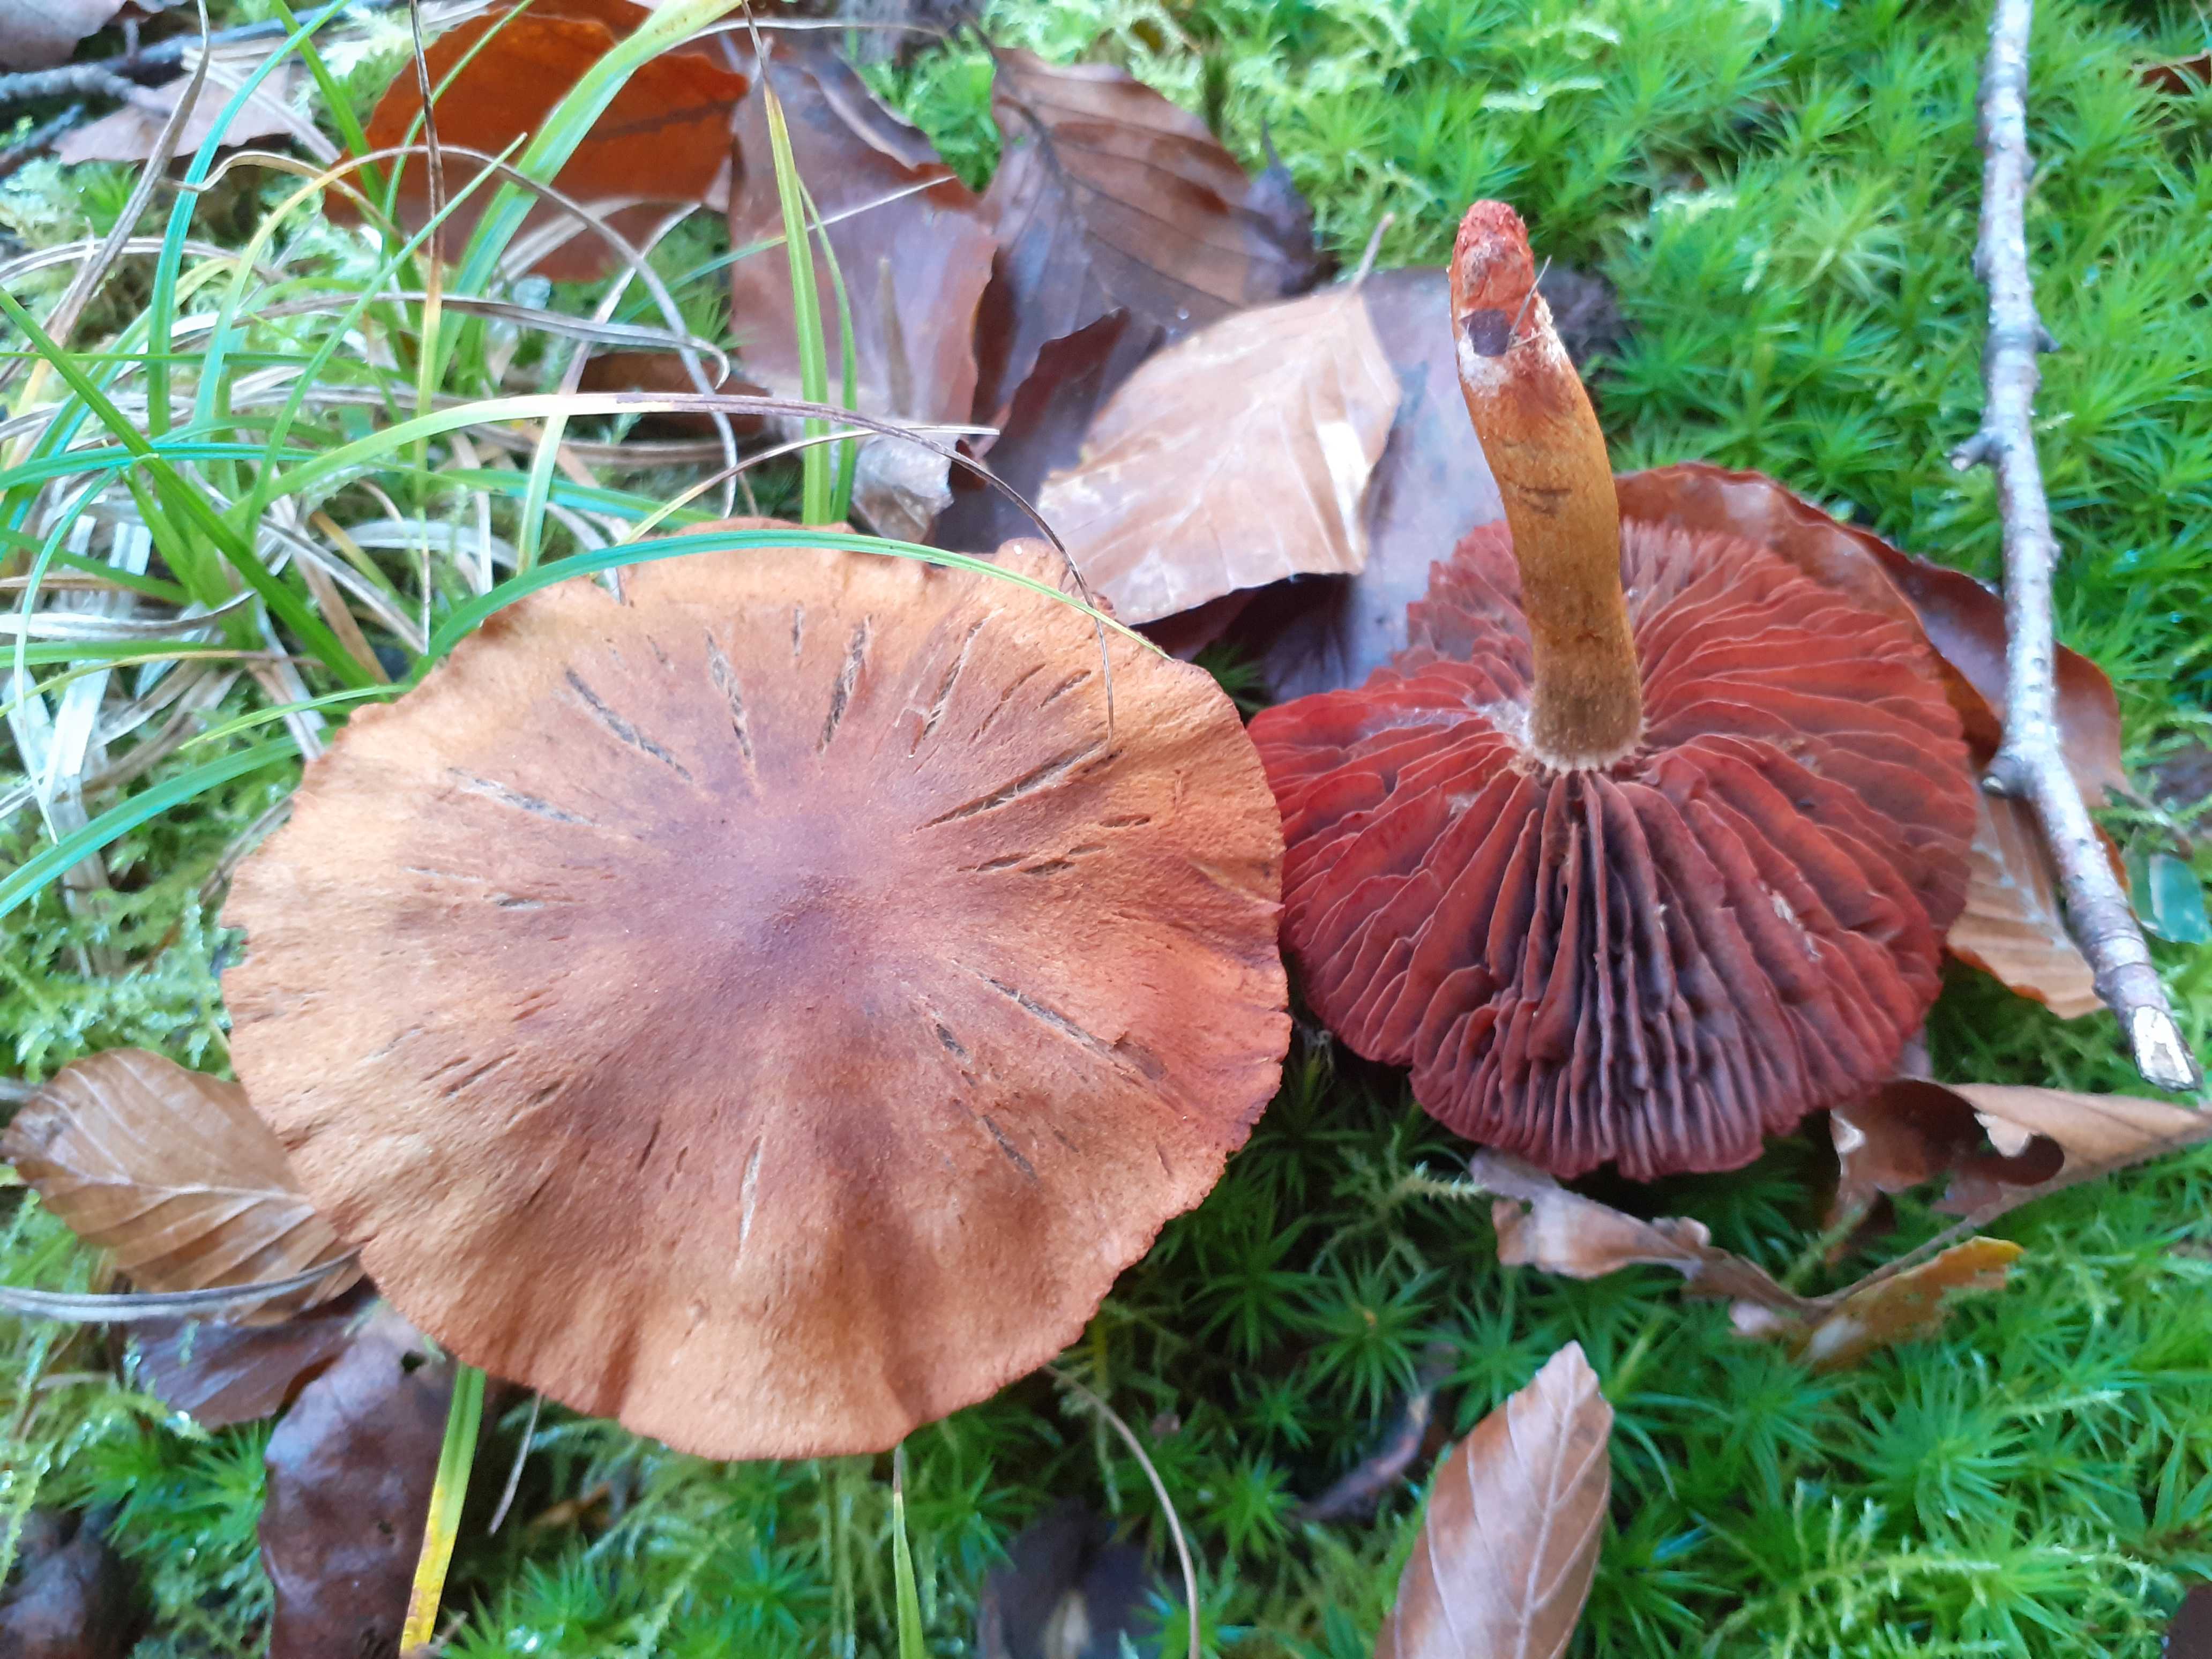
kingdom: Fungi
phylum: Basidiomycota
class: Agaricomycetes
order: Agaricales
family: Cortinariaceae
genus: Cortinarius
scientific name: Cortinarius purpureus
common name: brunrød slørhat
